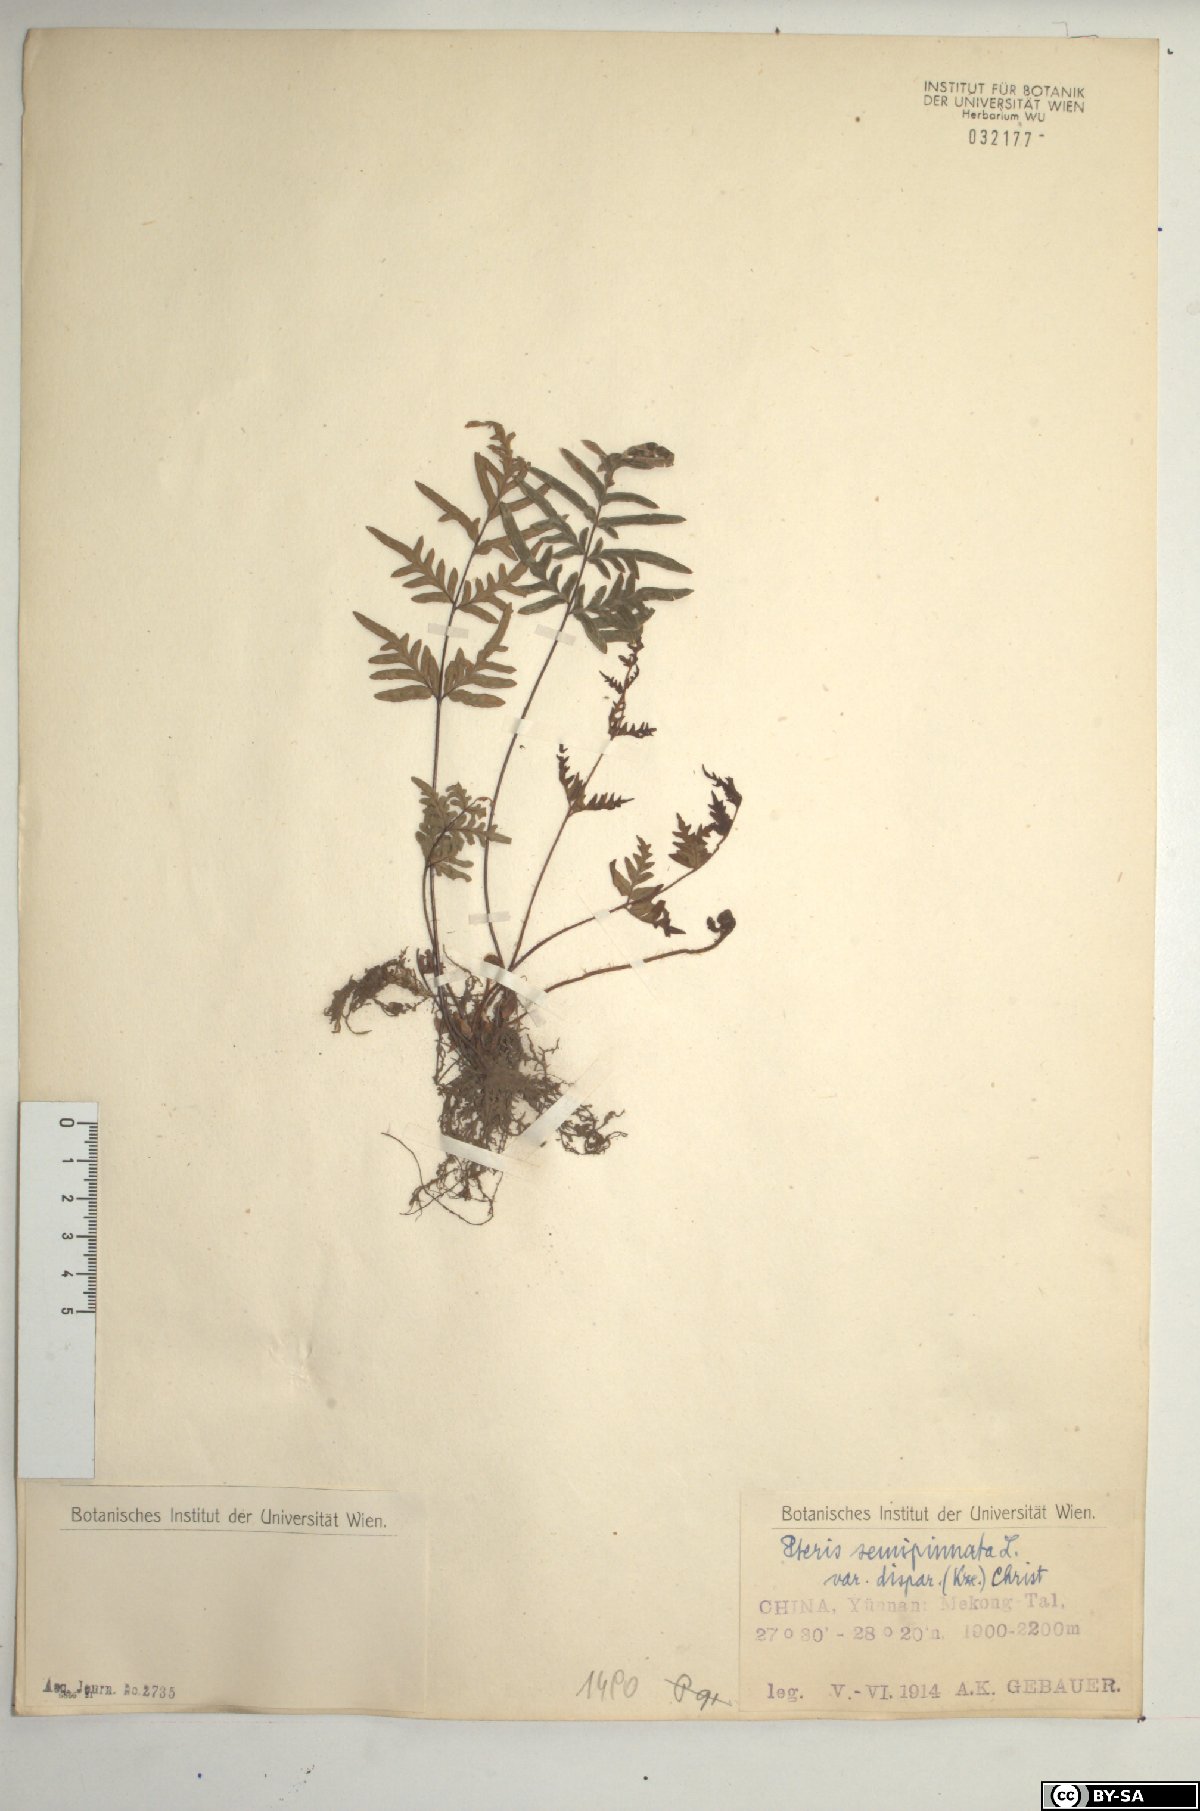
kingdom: Plantae
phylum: Tracheophyta
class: Polypodiopsida
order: Polypodiales
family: Pteridaceae
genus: Pteris
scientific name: Pteris dispar
